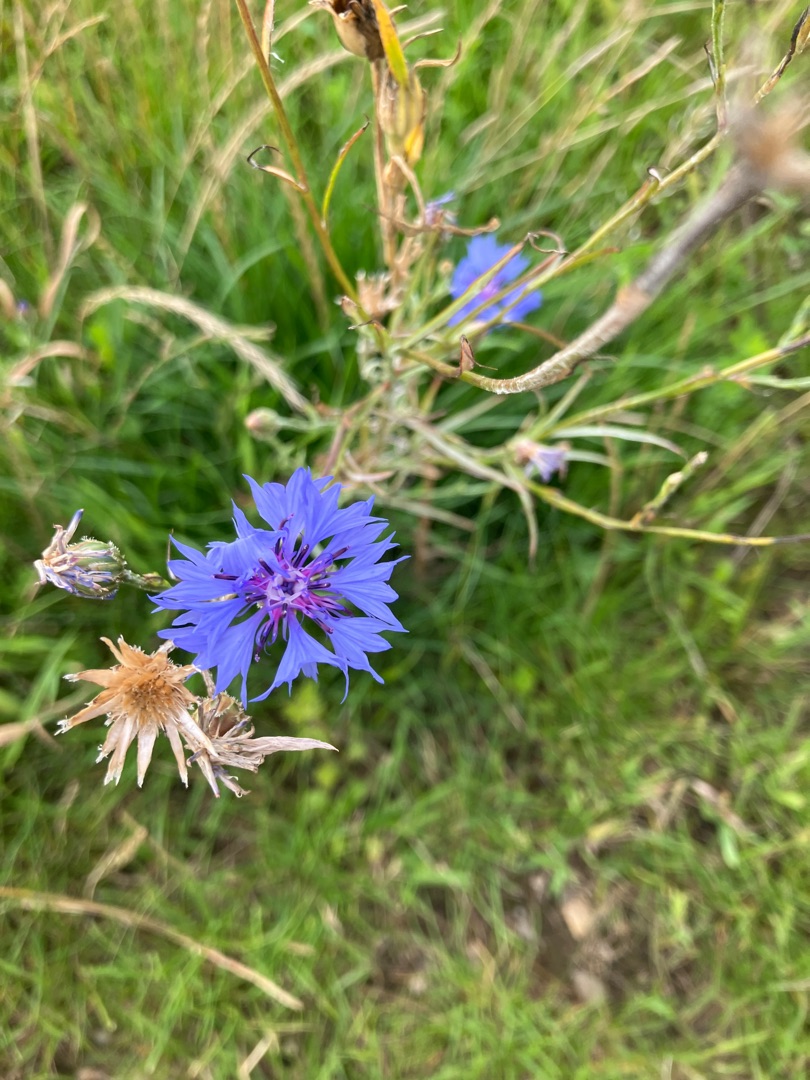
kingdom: Plantae
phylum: Tracheophyta
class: Magnoliopsida
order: Asterales
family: Asteraceae
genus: Centaurea
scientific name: Centaurea cyanus
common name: Kornblomst
